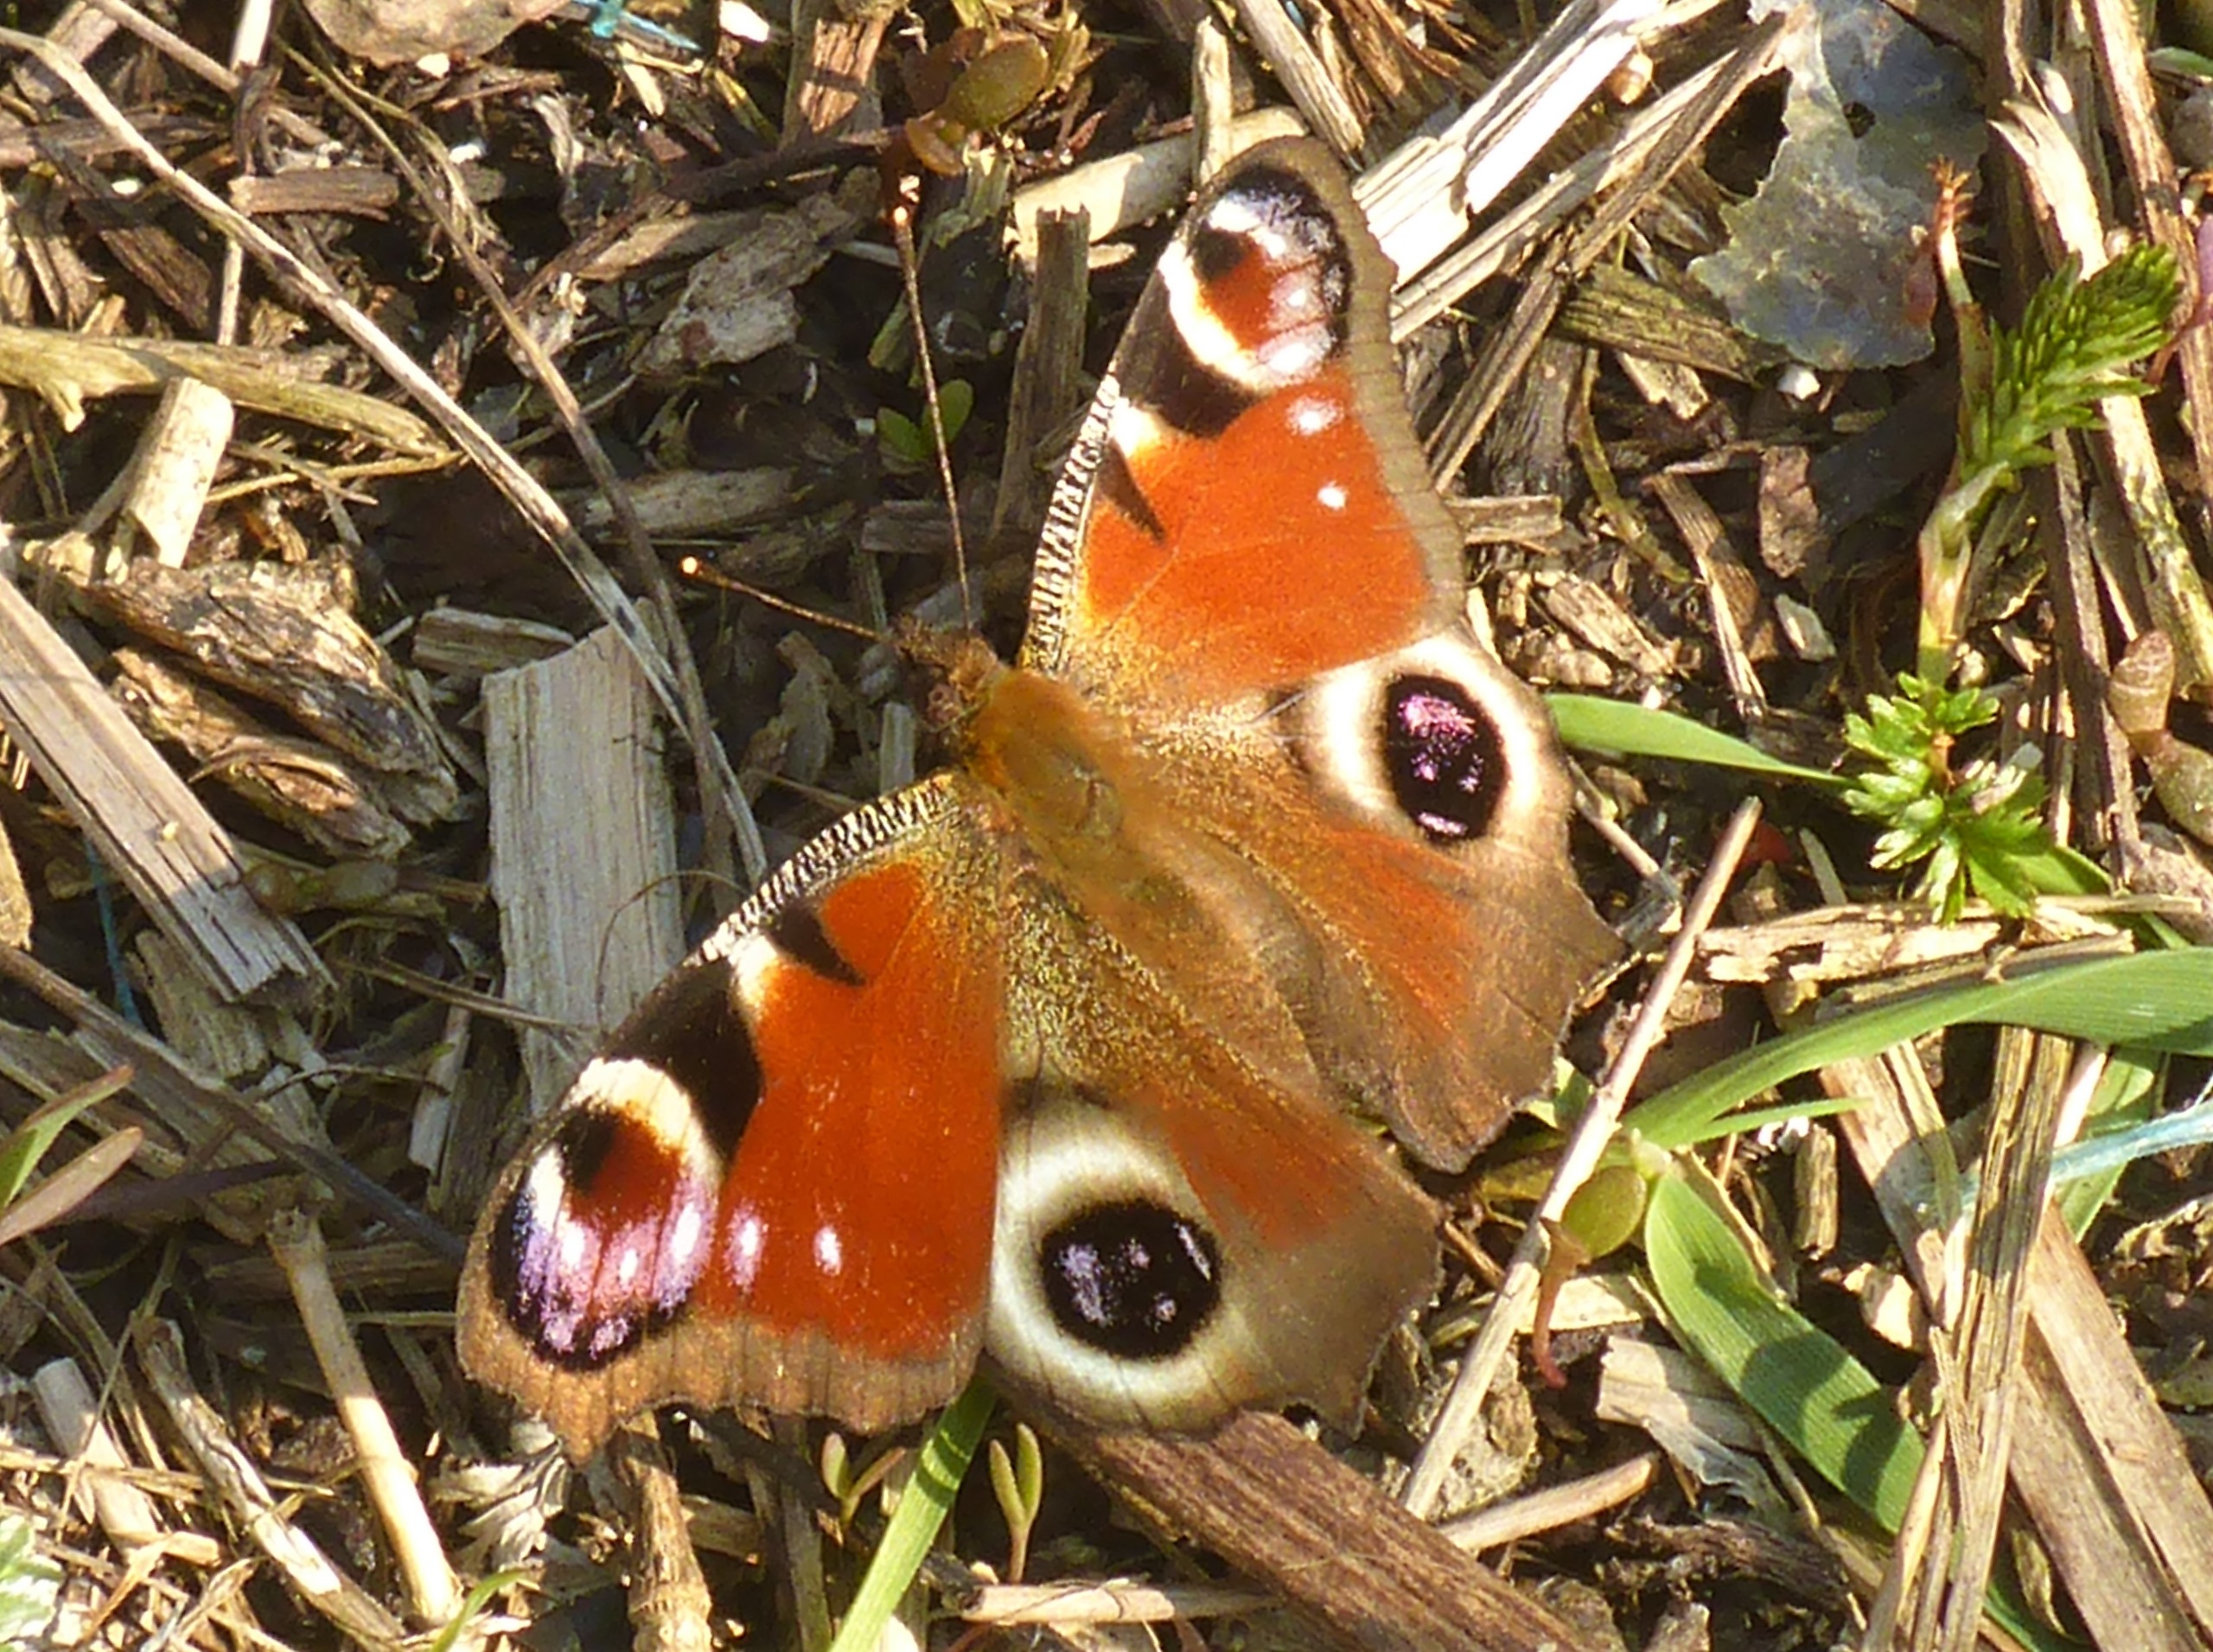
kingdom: Animalia
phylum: Arthropoda
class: Insecta
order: Lepidoptera
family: Nymphalidae
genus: Aglais
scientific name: Aglais io
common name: Dagpåfugleøje
